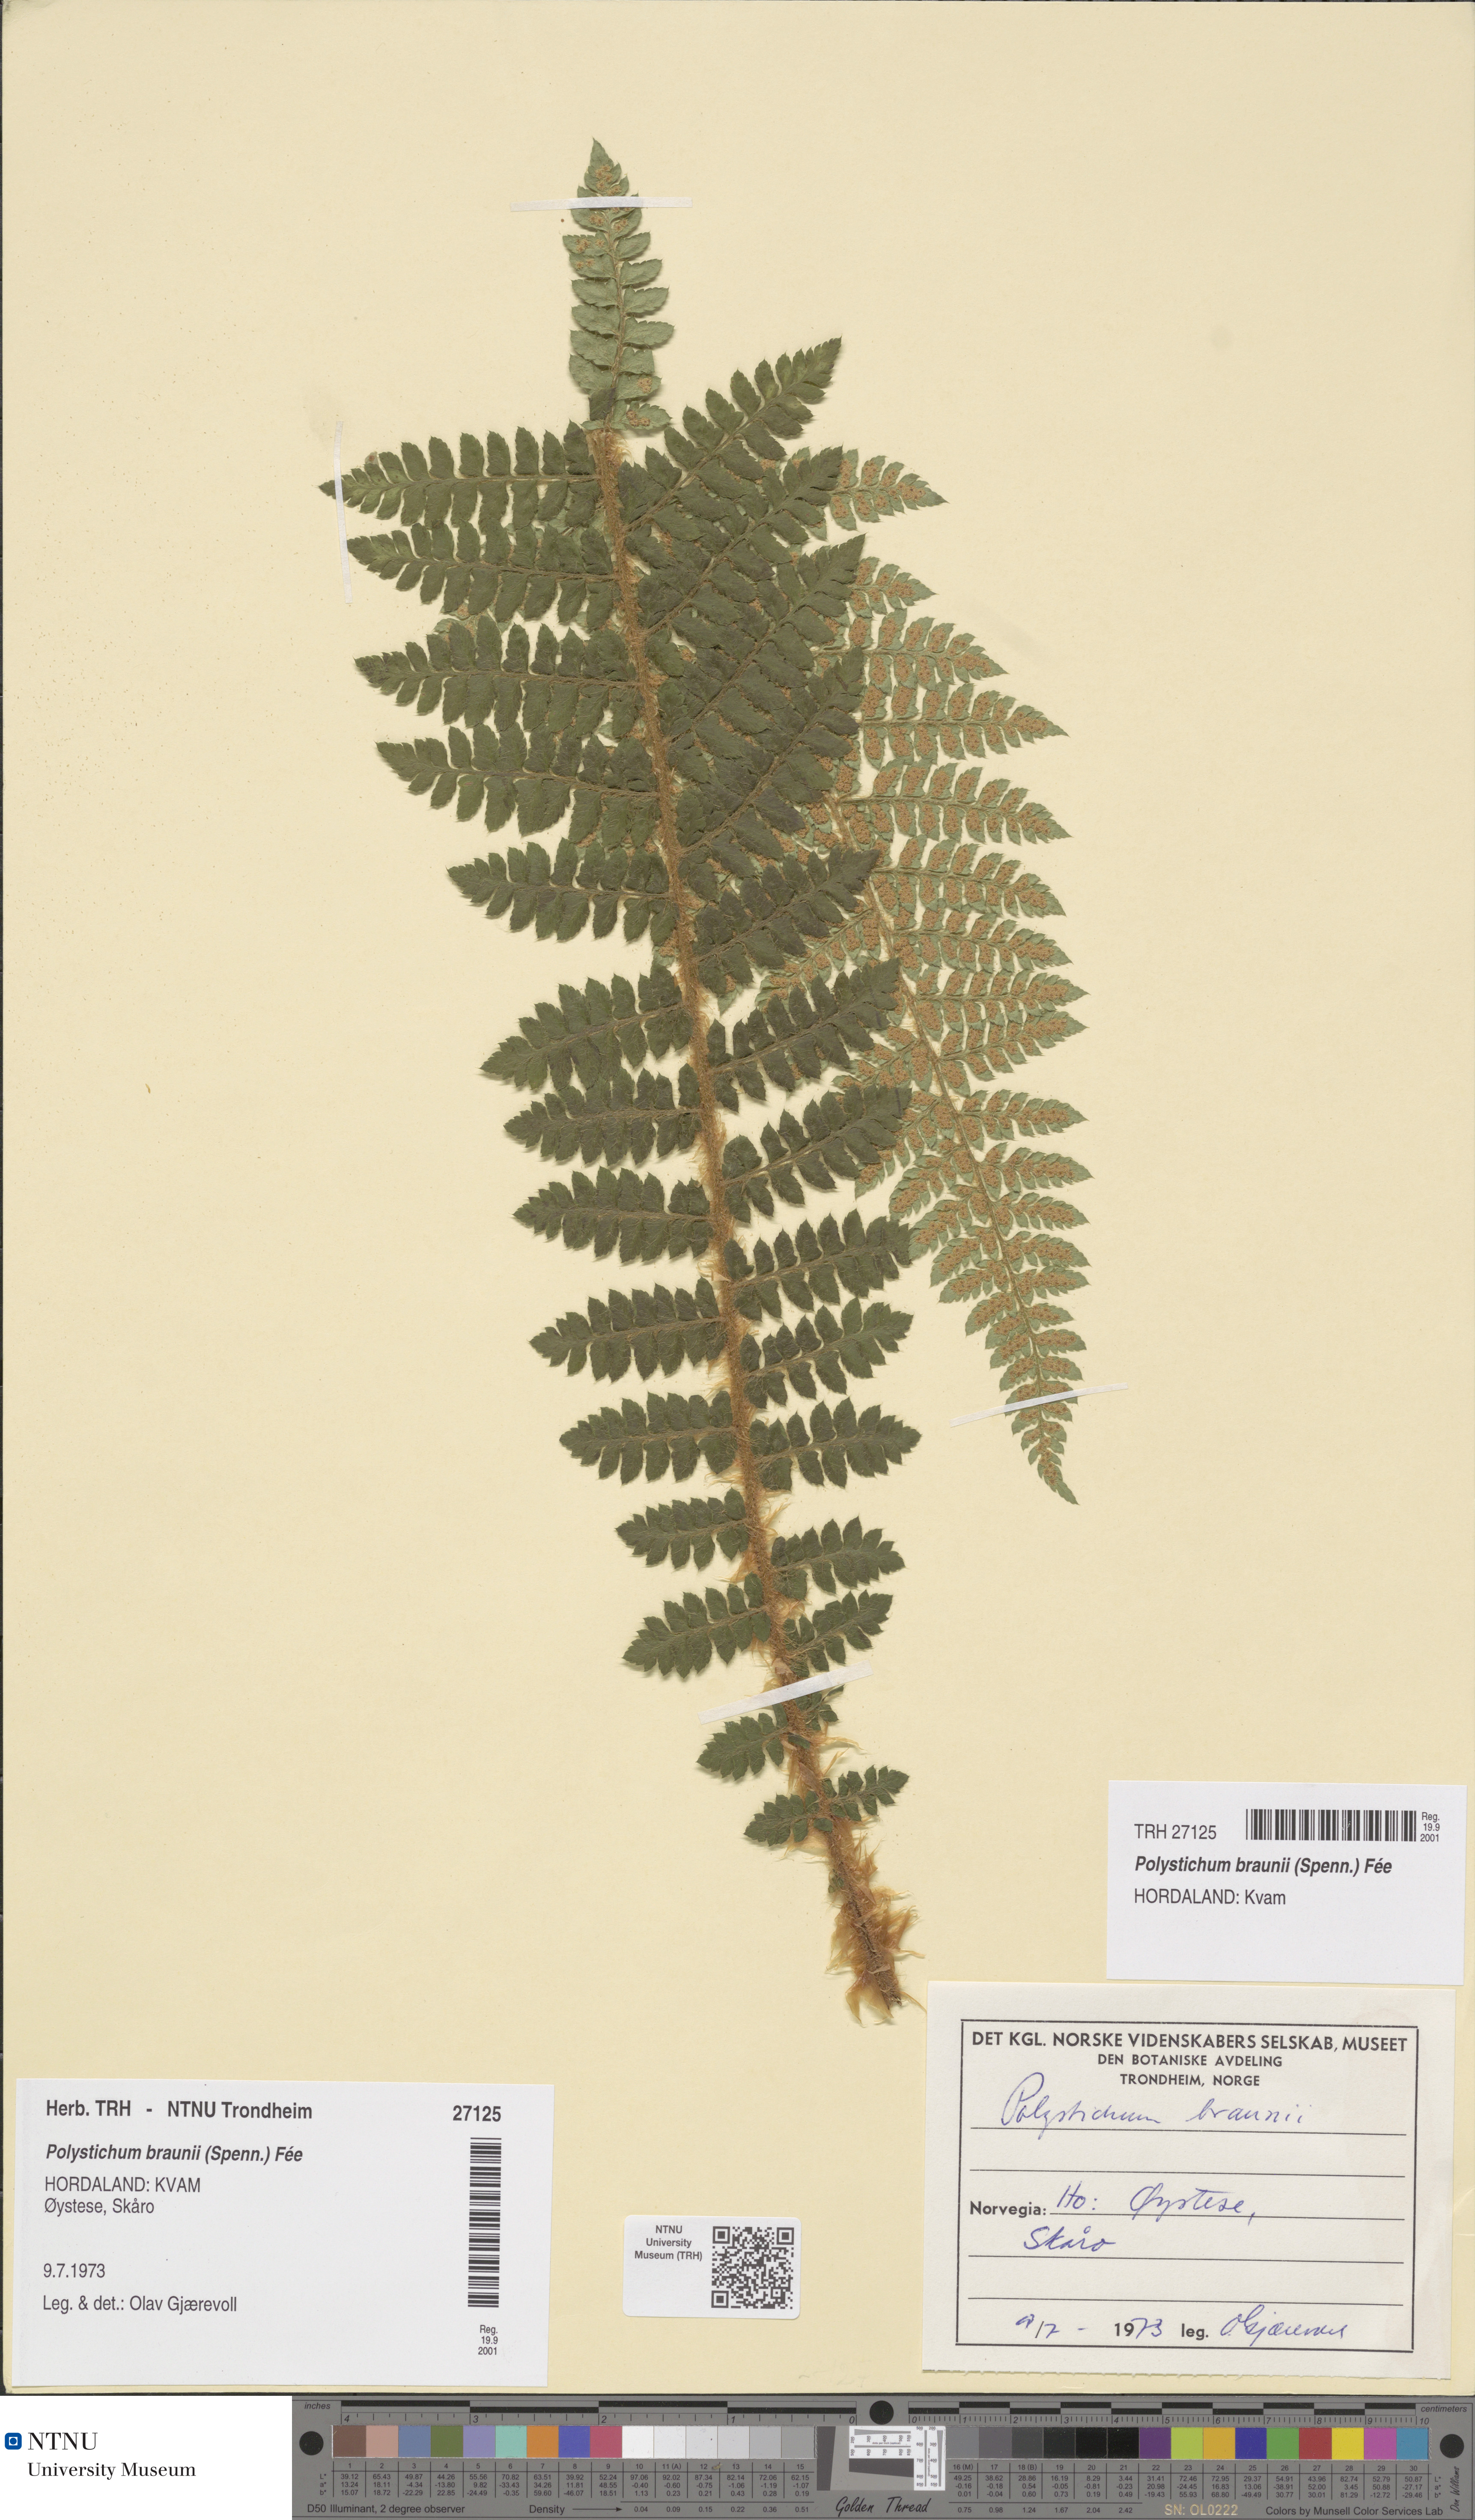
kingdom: Plantae
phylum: Tracheophyta
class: Polypodiopsida
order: Polypodiales
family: Dryopteridaceae
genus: Polystichum
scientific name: Polystichum braunii
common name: Braun's holly fern
